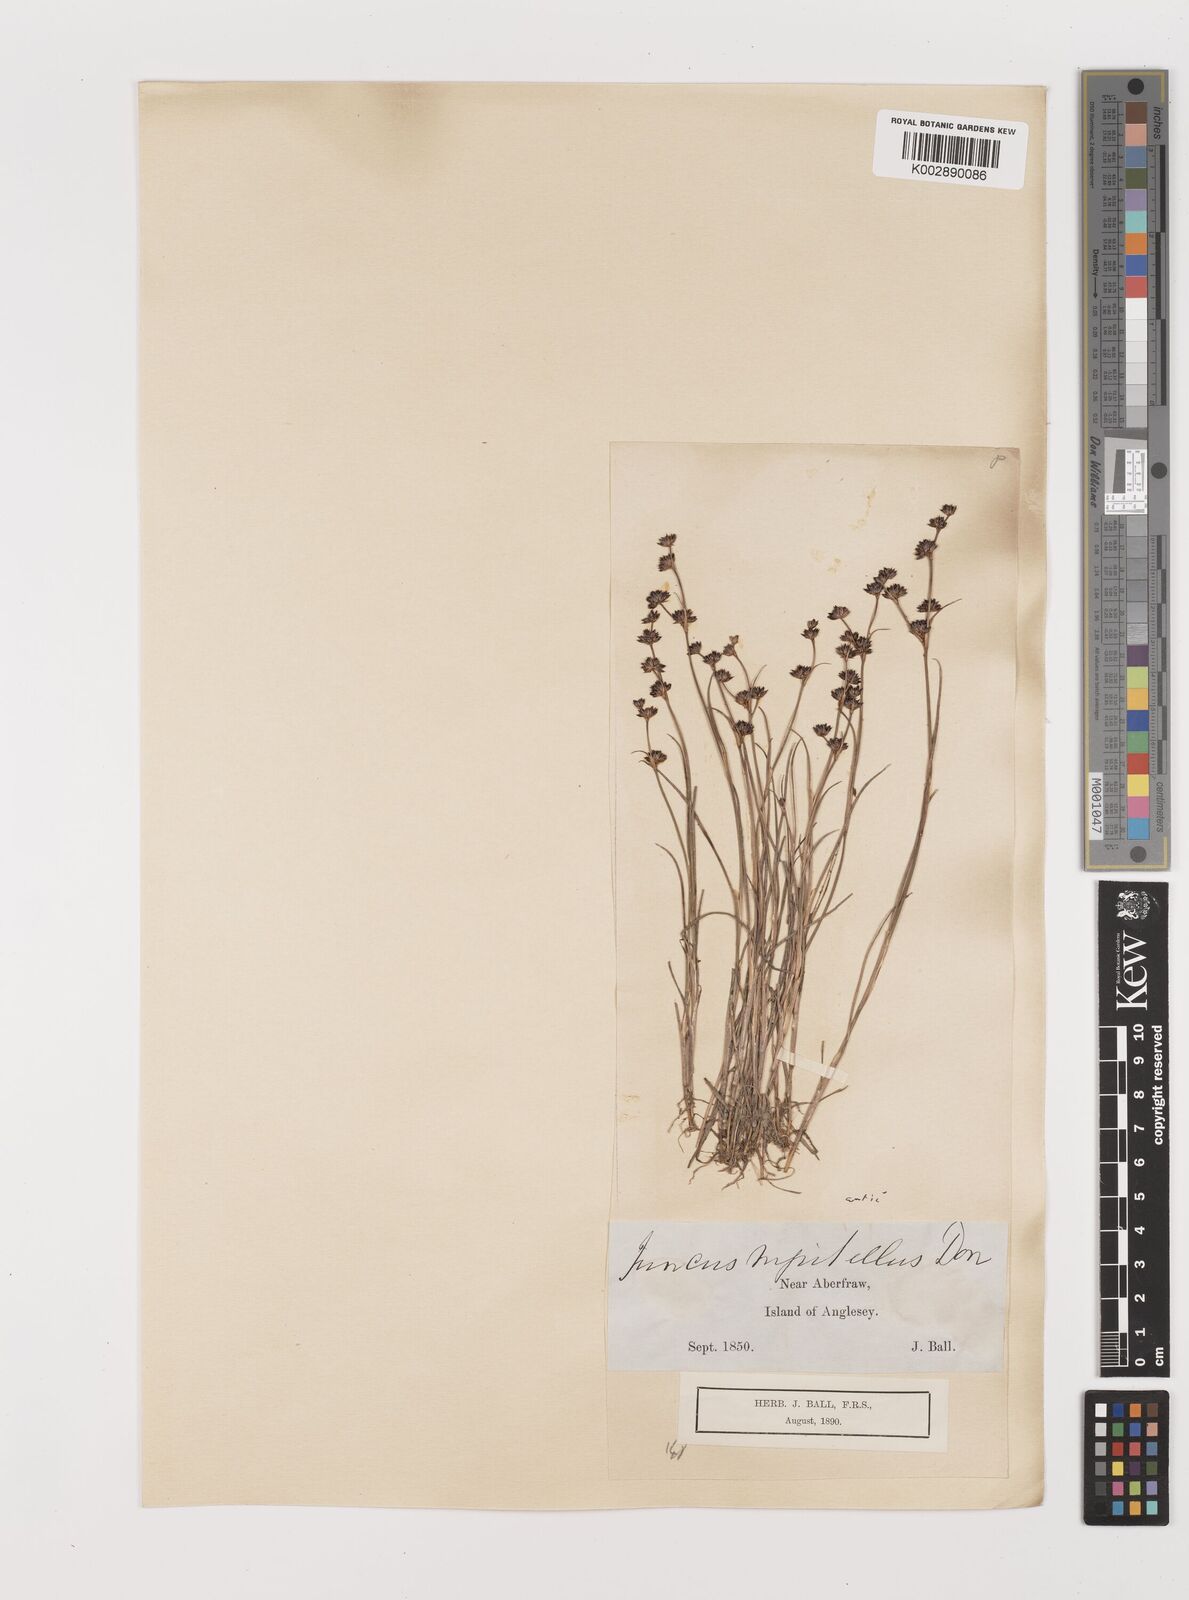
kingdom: Plantae
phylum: Tracheophyta
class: Liliopsida
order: Poales
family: Juncaceae
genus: Juncus
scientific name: Juncus articulatus
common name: Jointed rush
